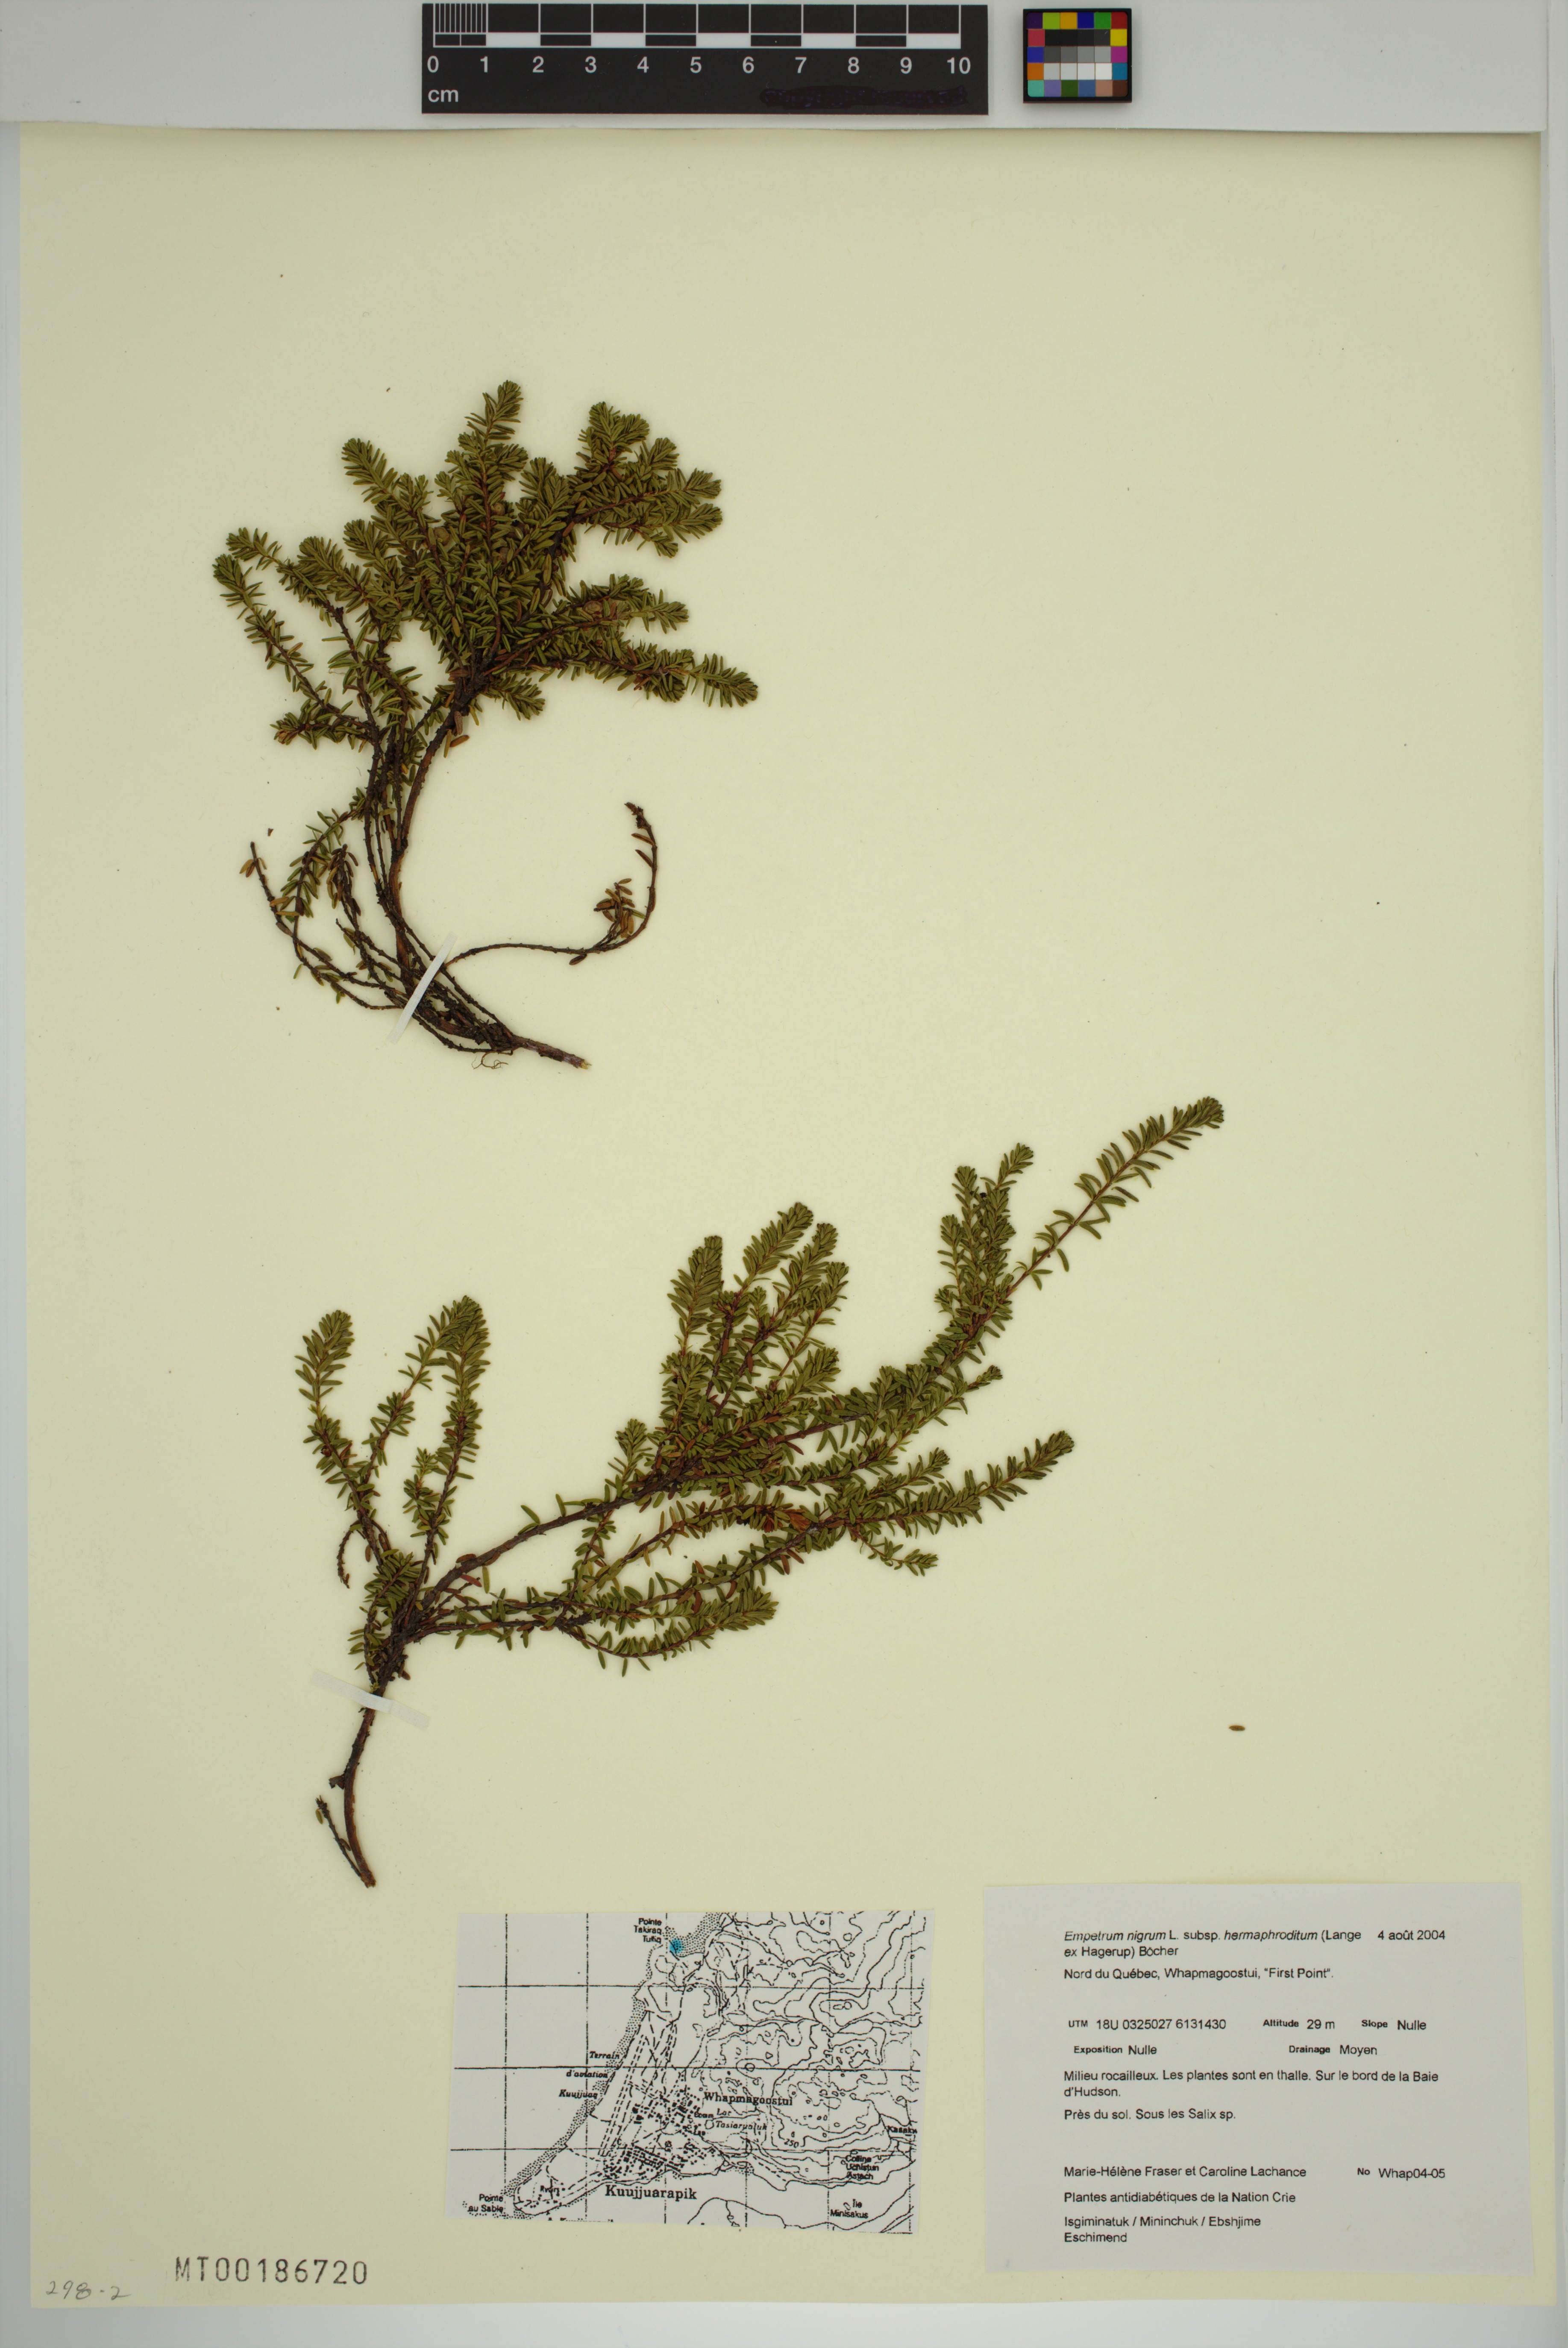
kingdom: Plantae
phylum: Tracheophyta
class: Magnoliopsida
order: Ericales
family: Ericaceae
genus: Empetrum
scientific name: Empetrum hermaphroditum
